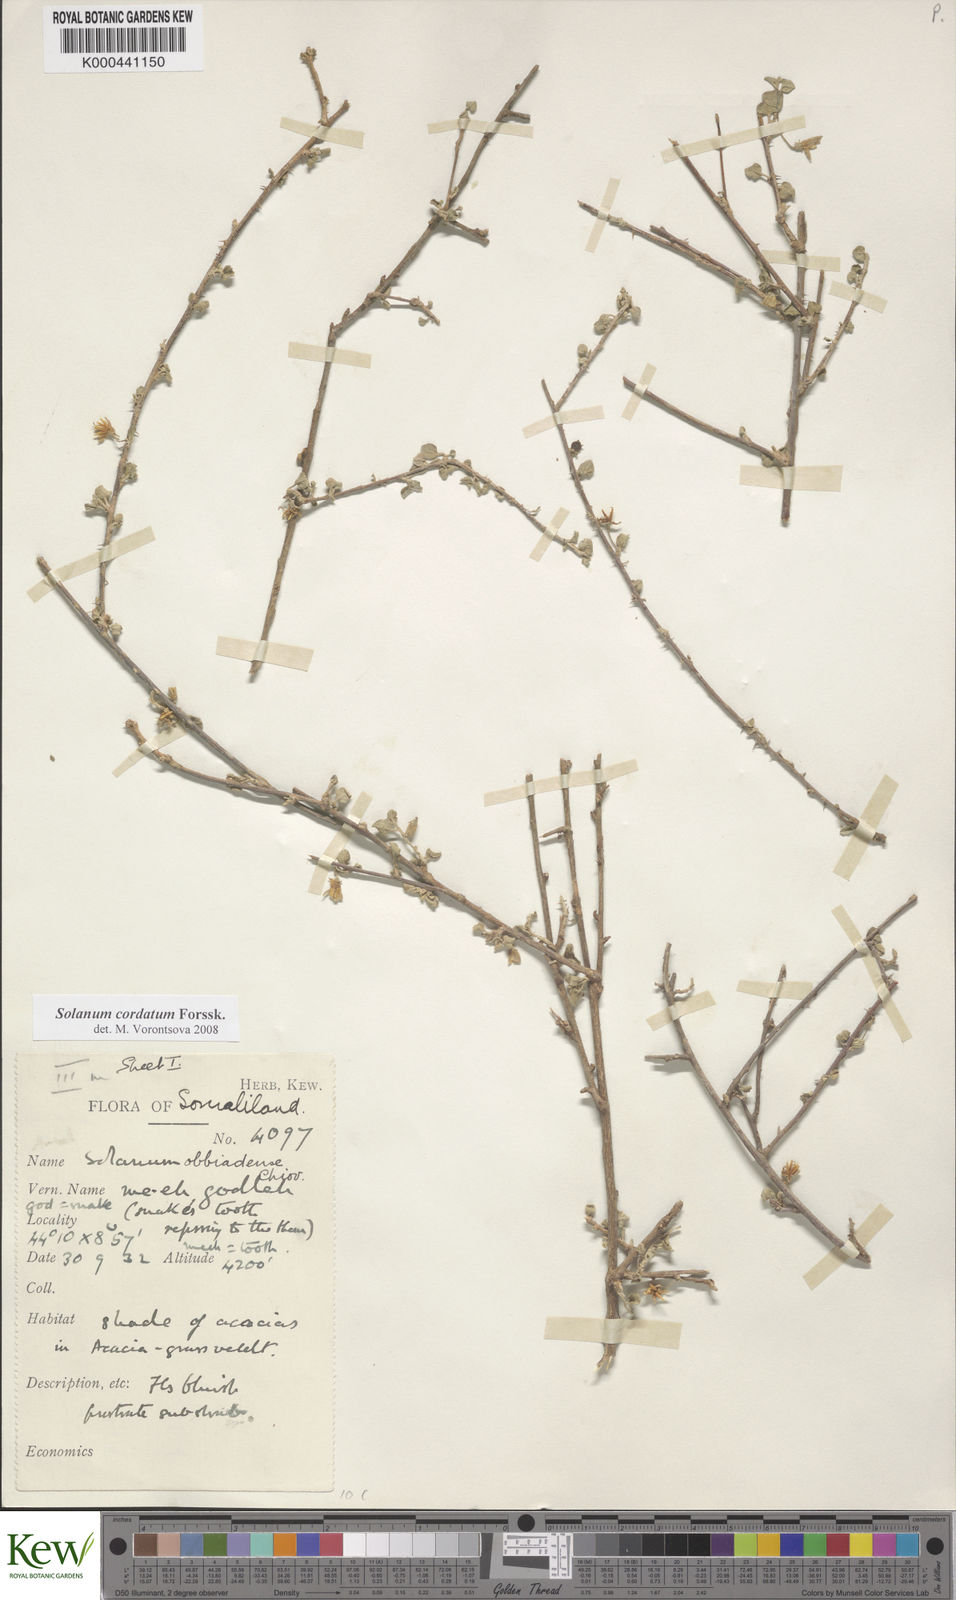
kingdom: Plantae
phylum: Tracheophyta
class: Magnoliopsida
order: Solanales
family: Solanaceae
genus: Solanum
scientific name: Solanum cordatum
